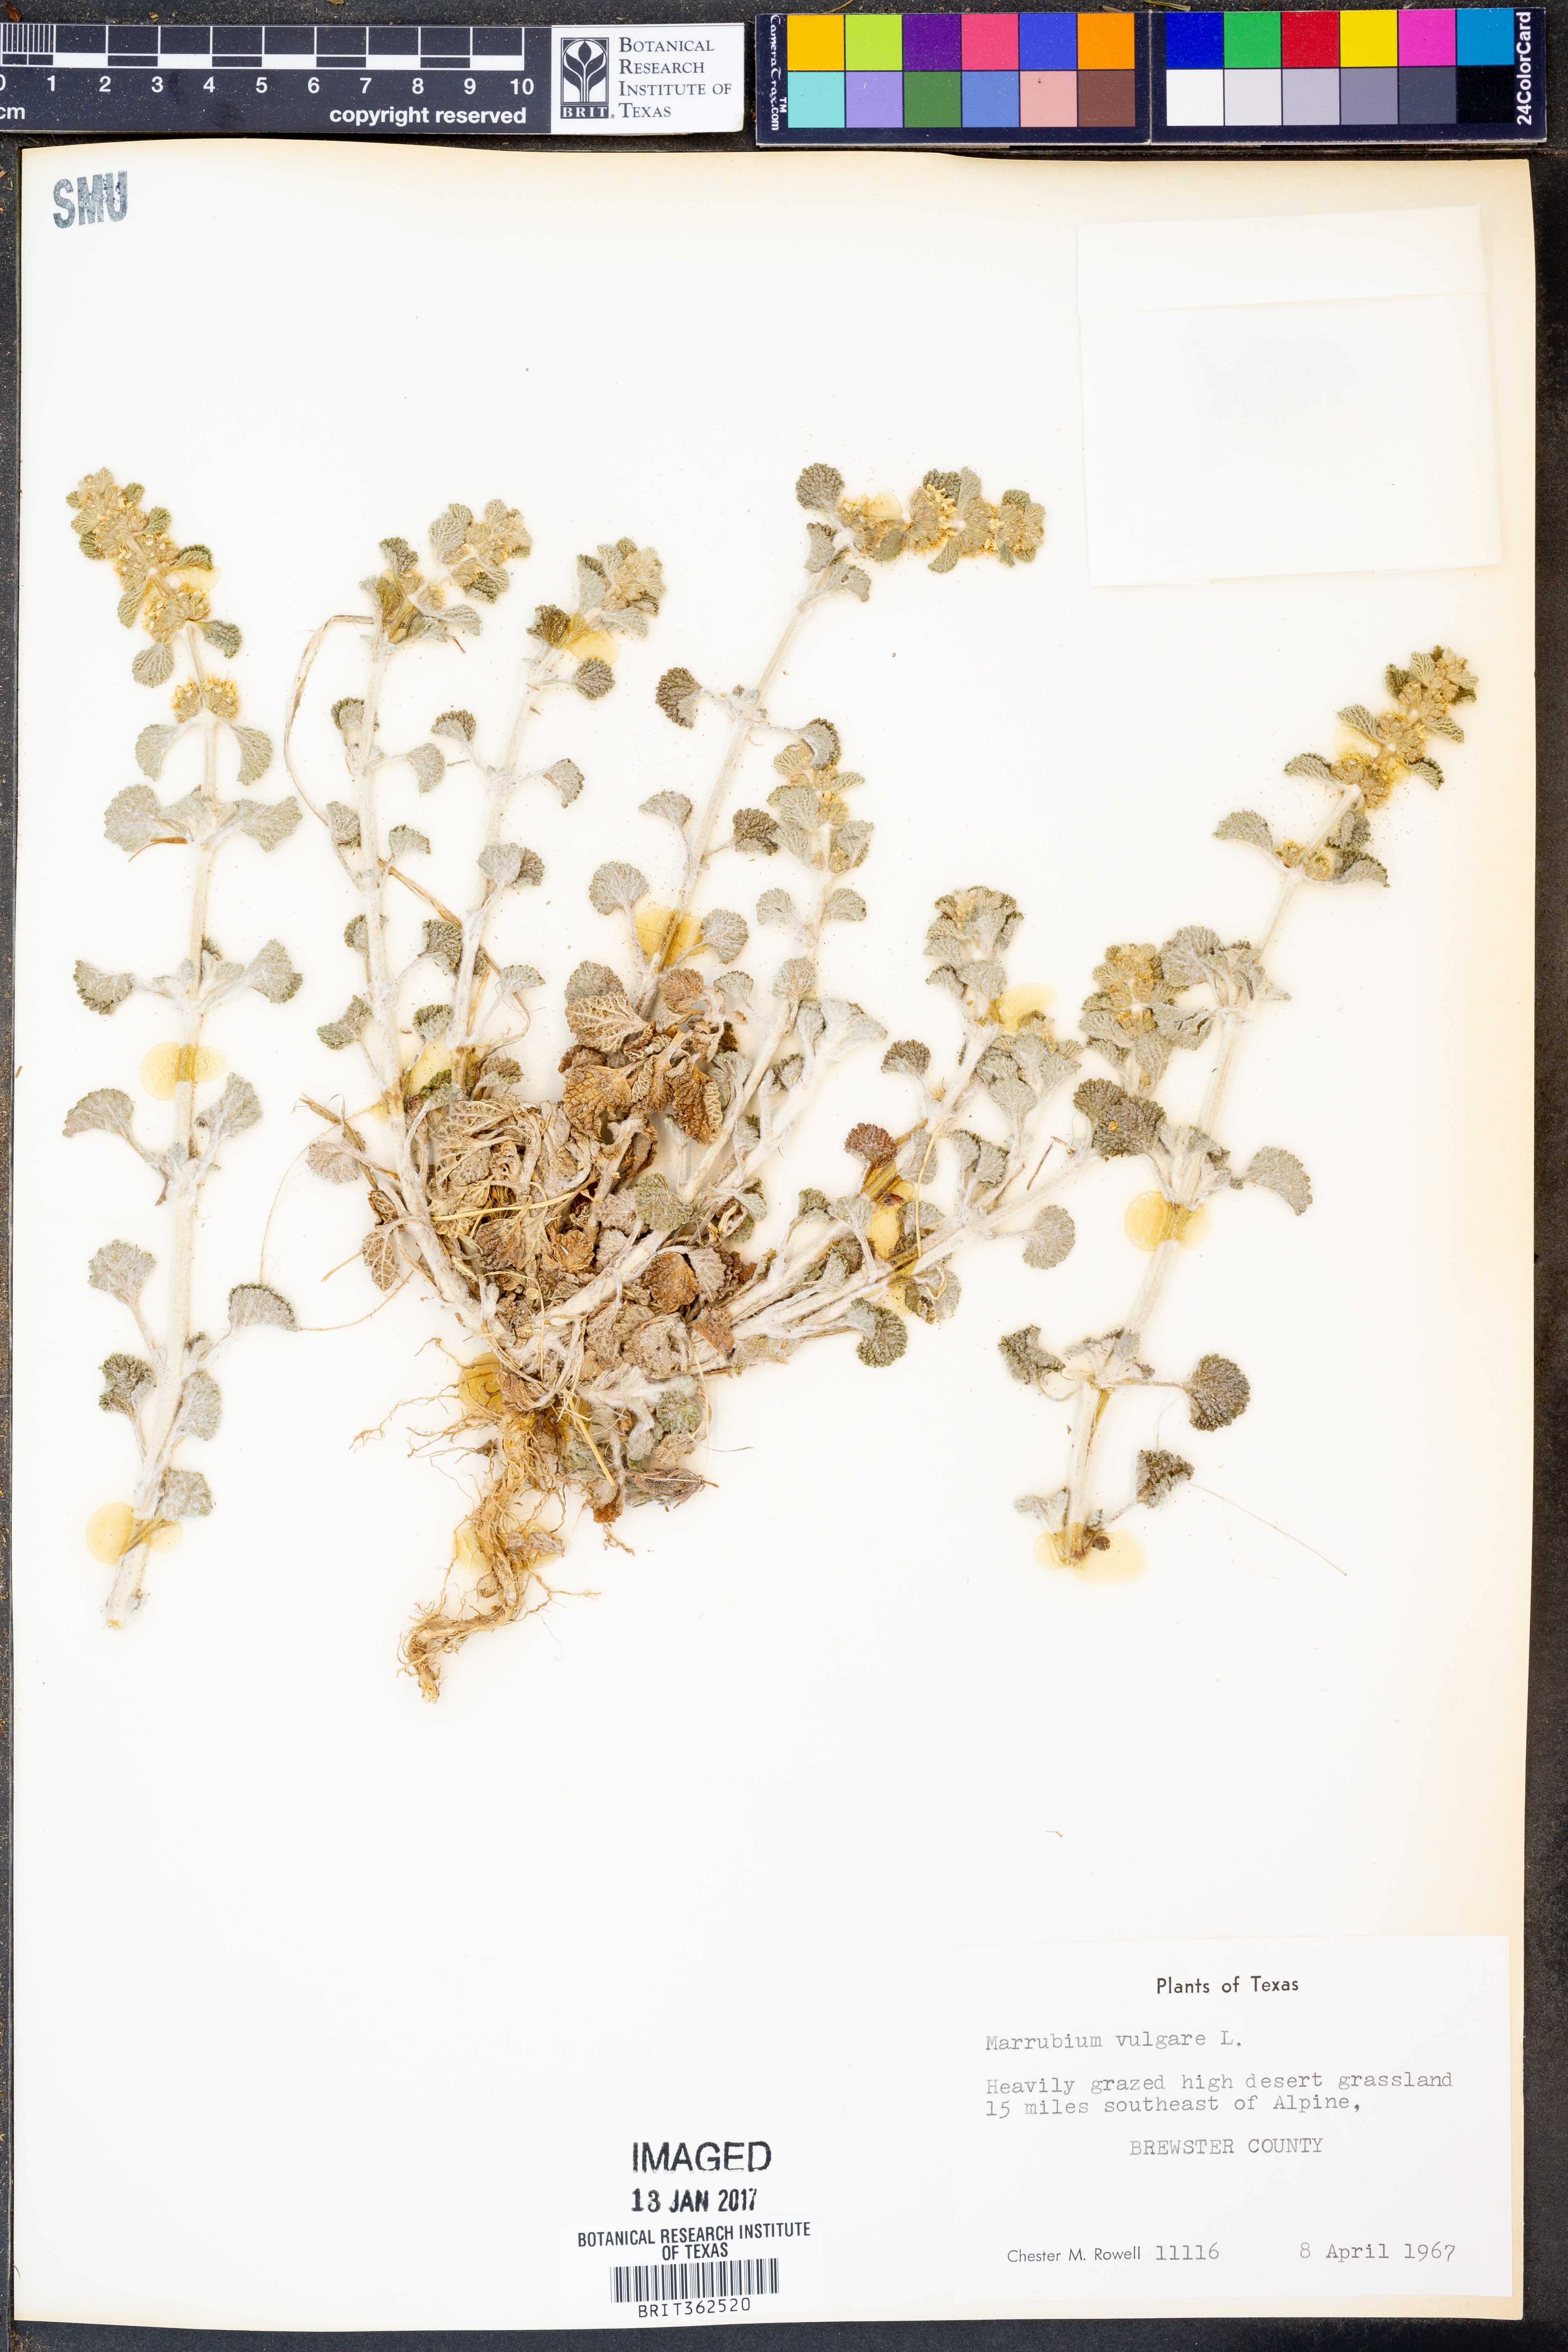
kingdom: Plantae
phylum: Tracheophyta
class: Magnoliopsida
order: Lamiales
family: Lamiaceae
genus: Marrubium
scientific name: Marrubium vulgare
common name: Horehound
